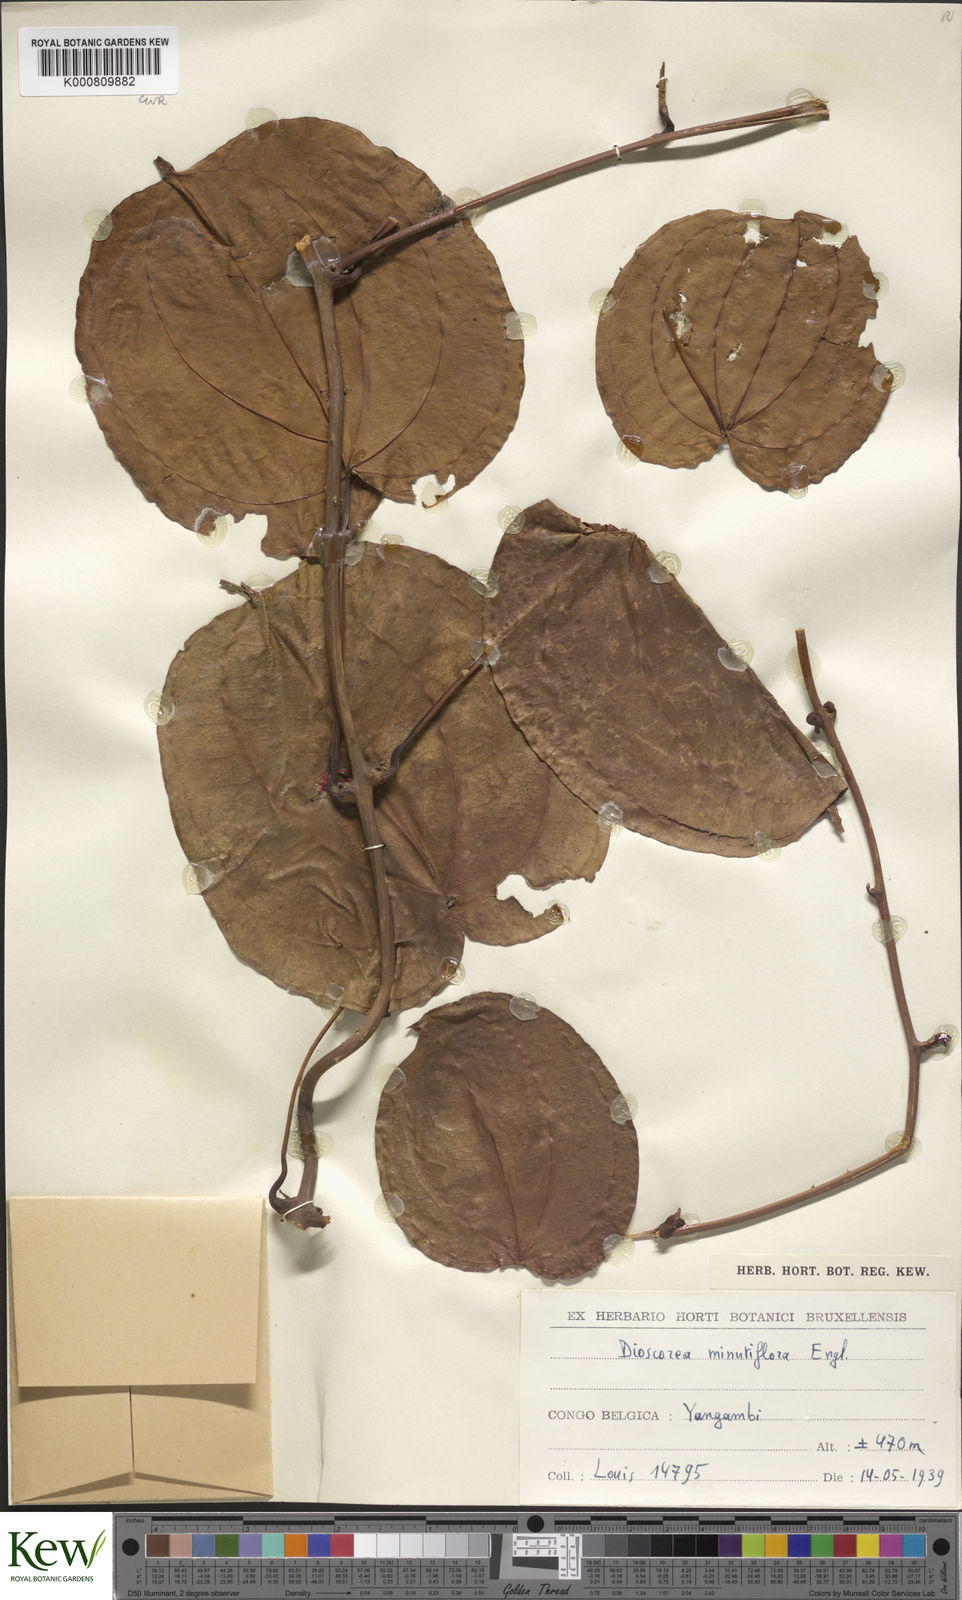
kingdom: Plantae
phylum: Tracheophyta
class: Liliopsida
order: Dioscoreales
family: Dioscoreaceae
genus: Dioscorea
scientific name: Dioscorea minutiflora
